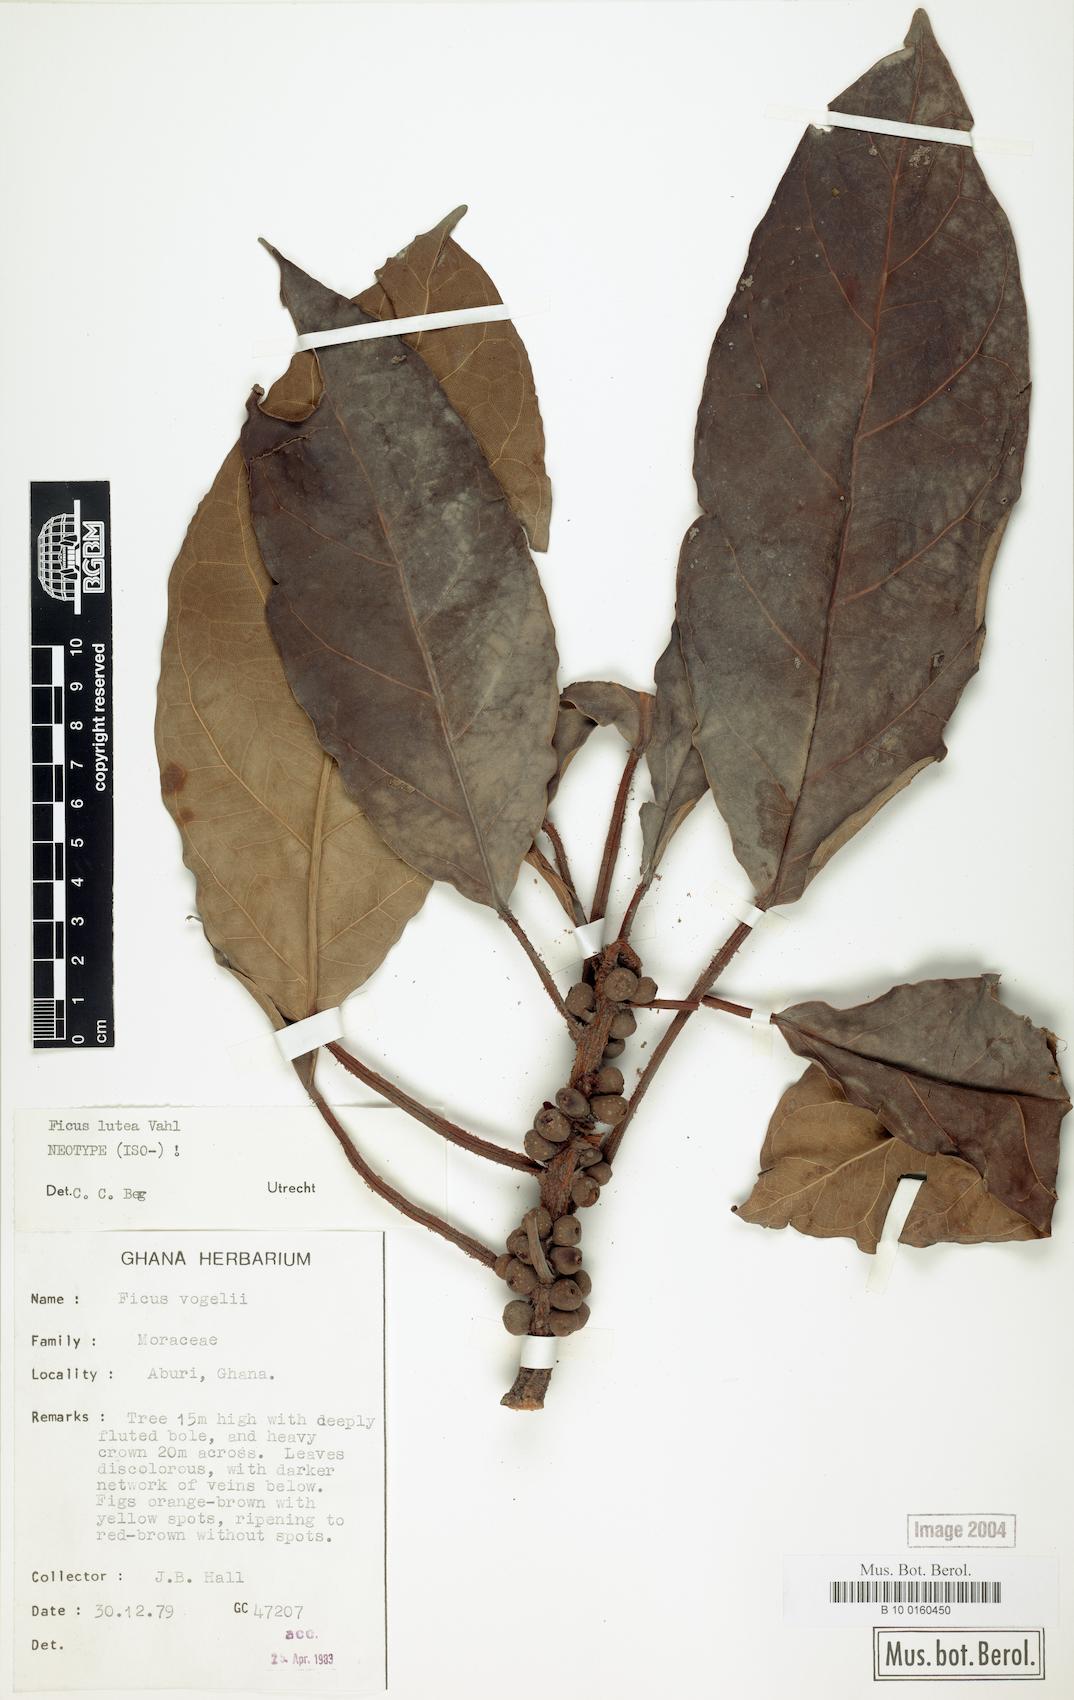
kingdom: Plantae
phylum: Tracheophyta
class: Magnoliopsida
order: Rosales
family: Moraceae
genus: Ficus
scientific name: Ficus lutea
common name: Giant-leaved fig
